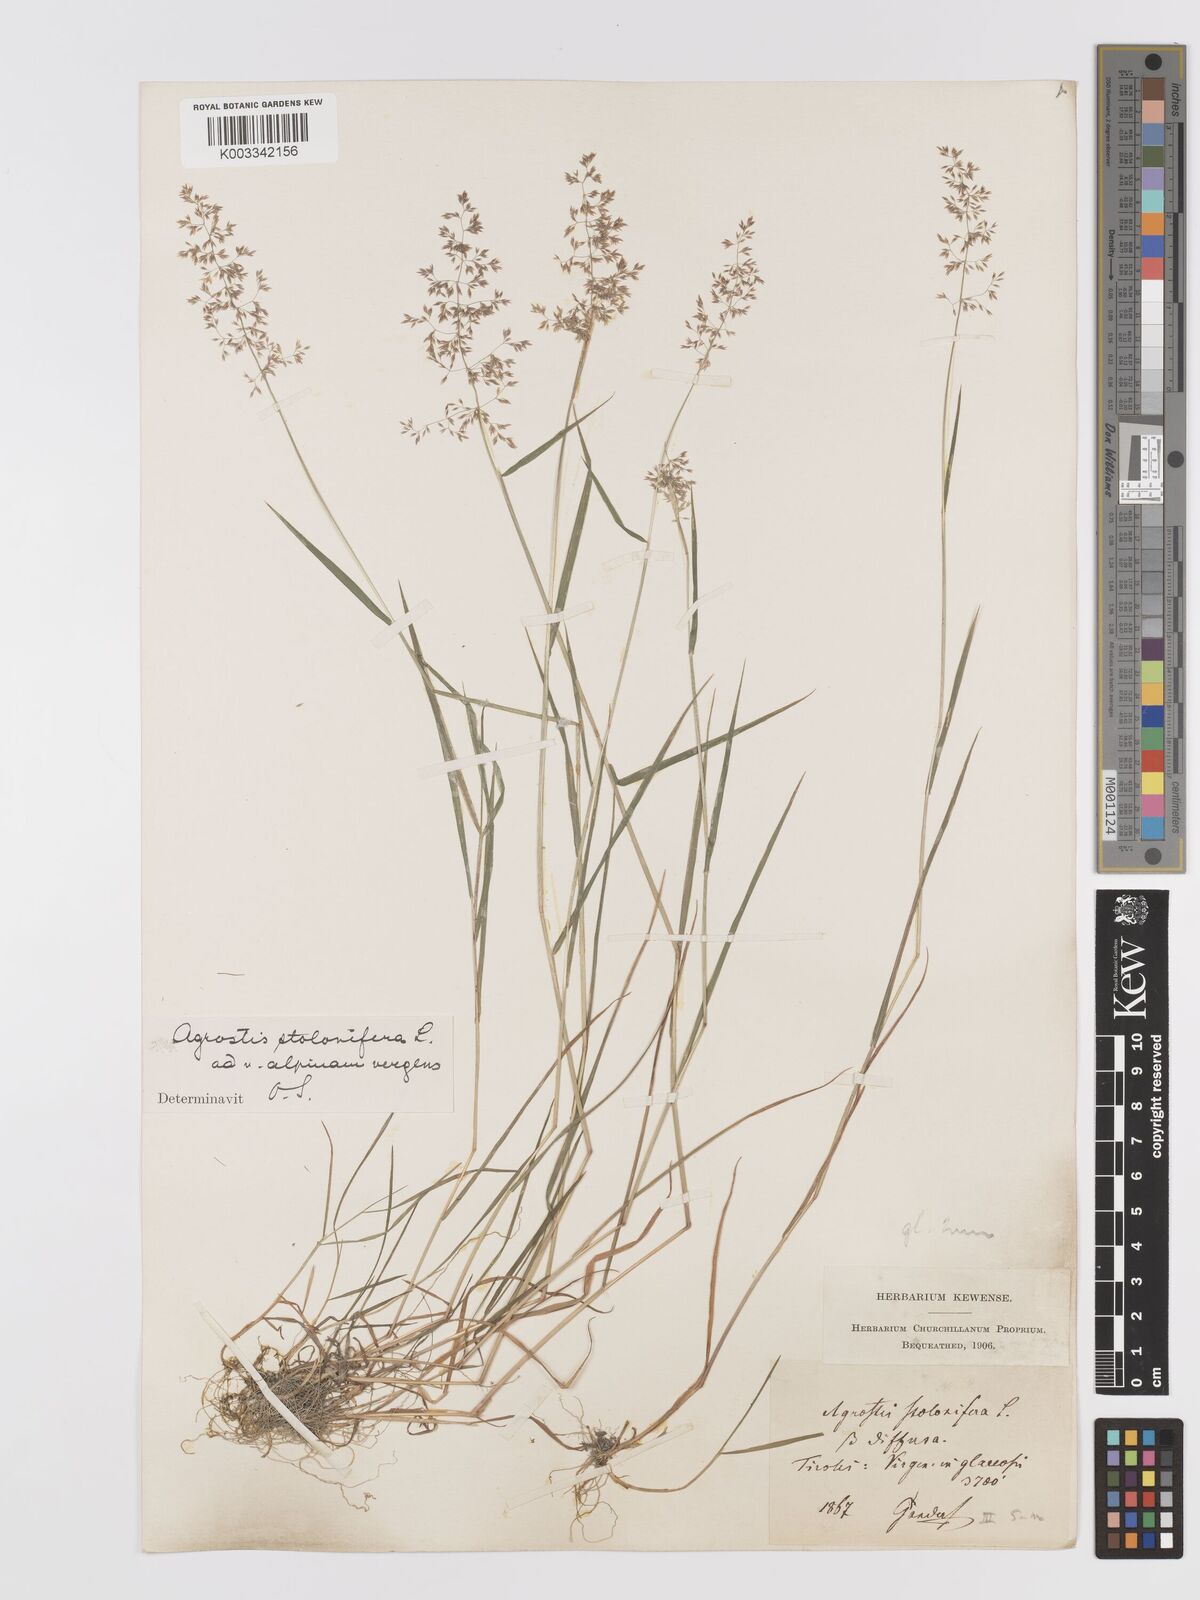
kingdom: Plantae
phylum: Tracheophyta
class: Liliopsida
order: Poales
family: Poaceae
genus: Agrostis
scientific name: Agrostis stolonifera
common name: Creeping bentgrass
